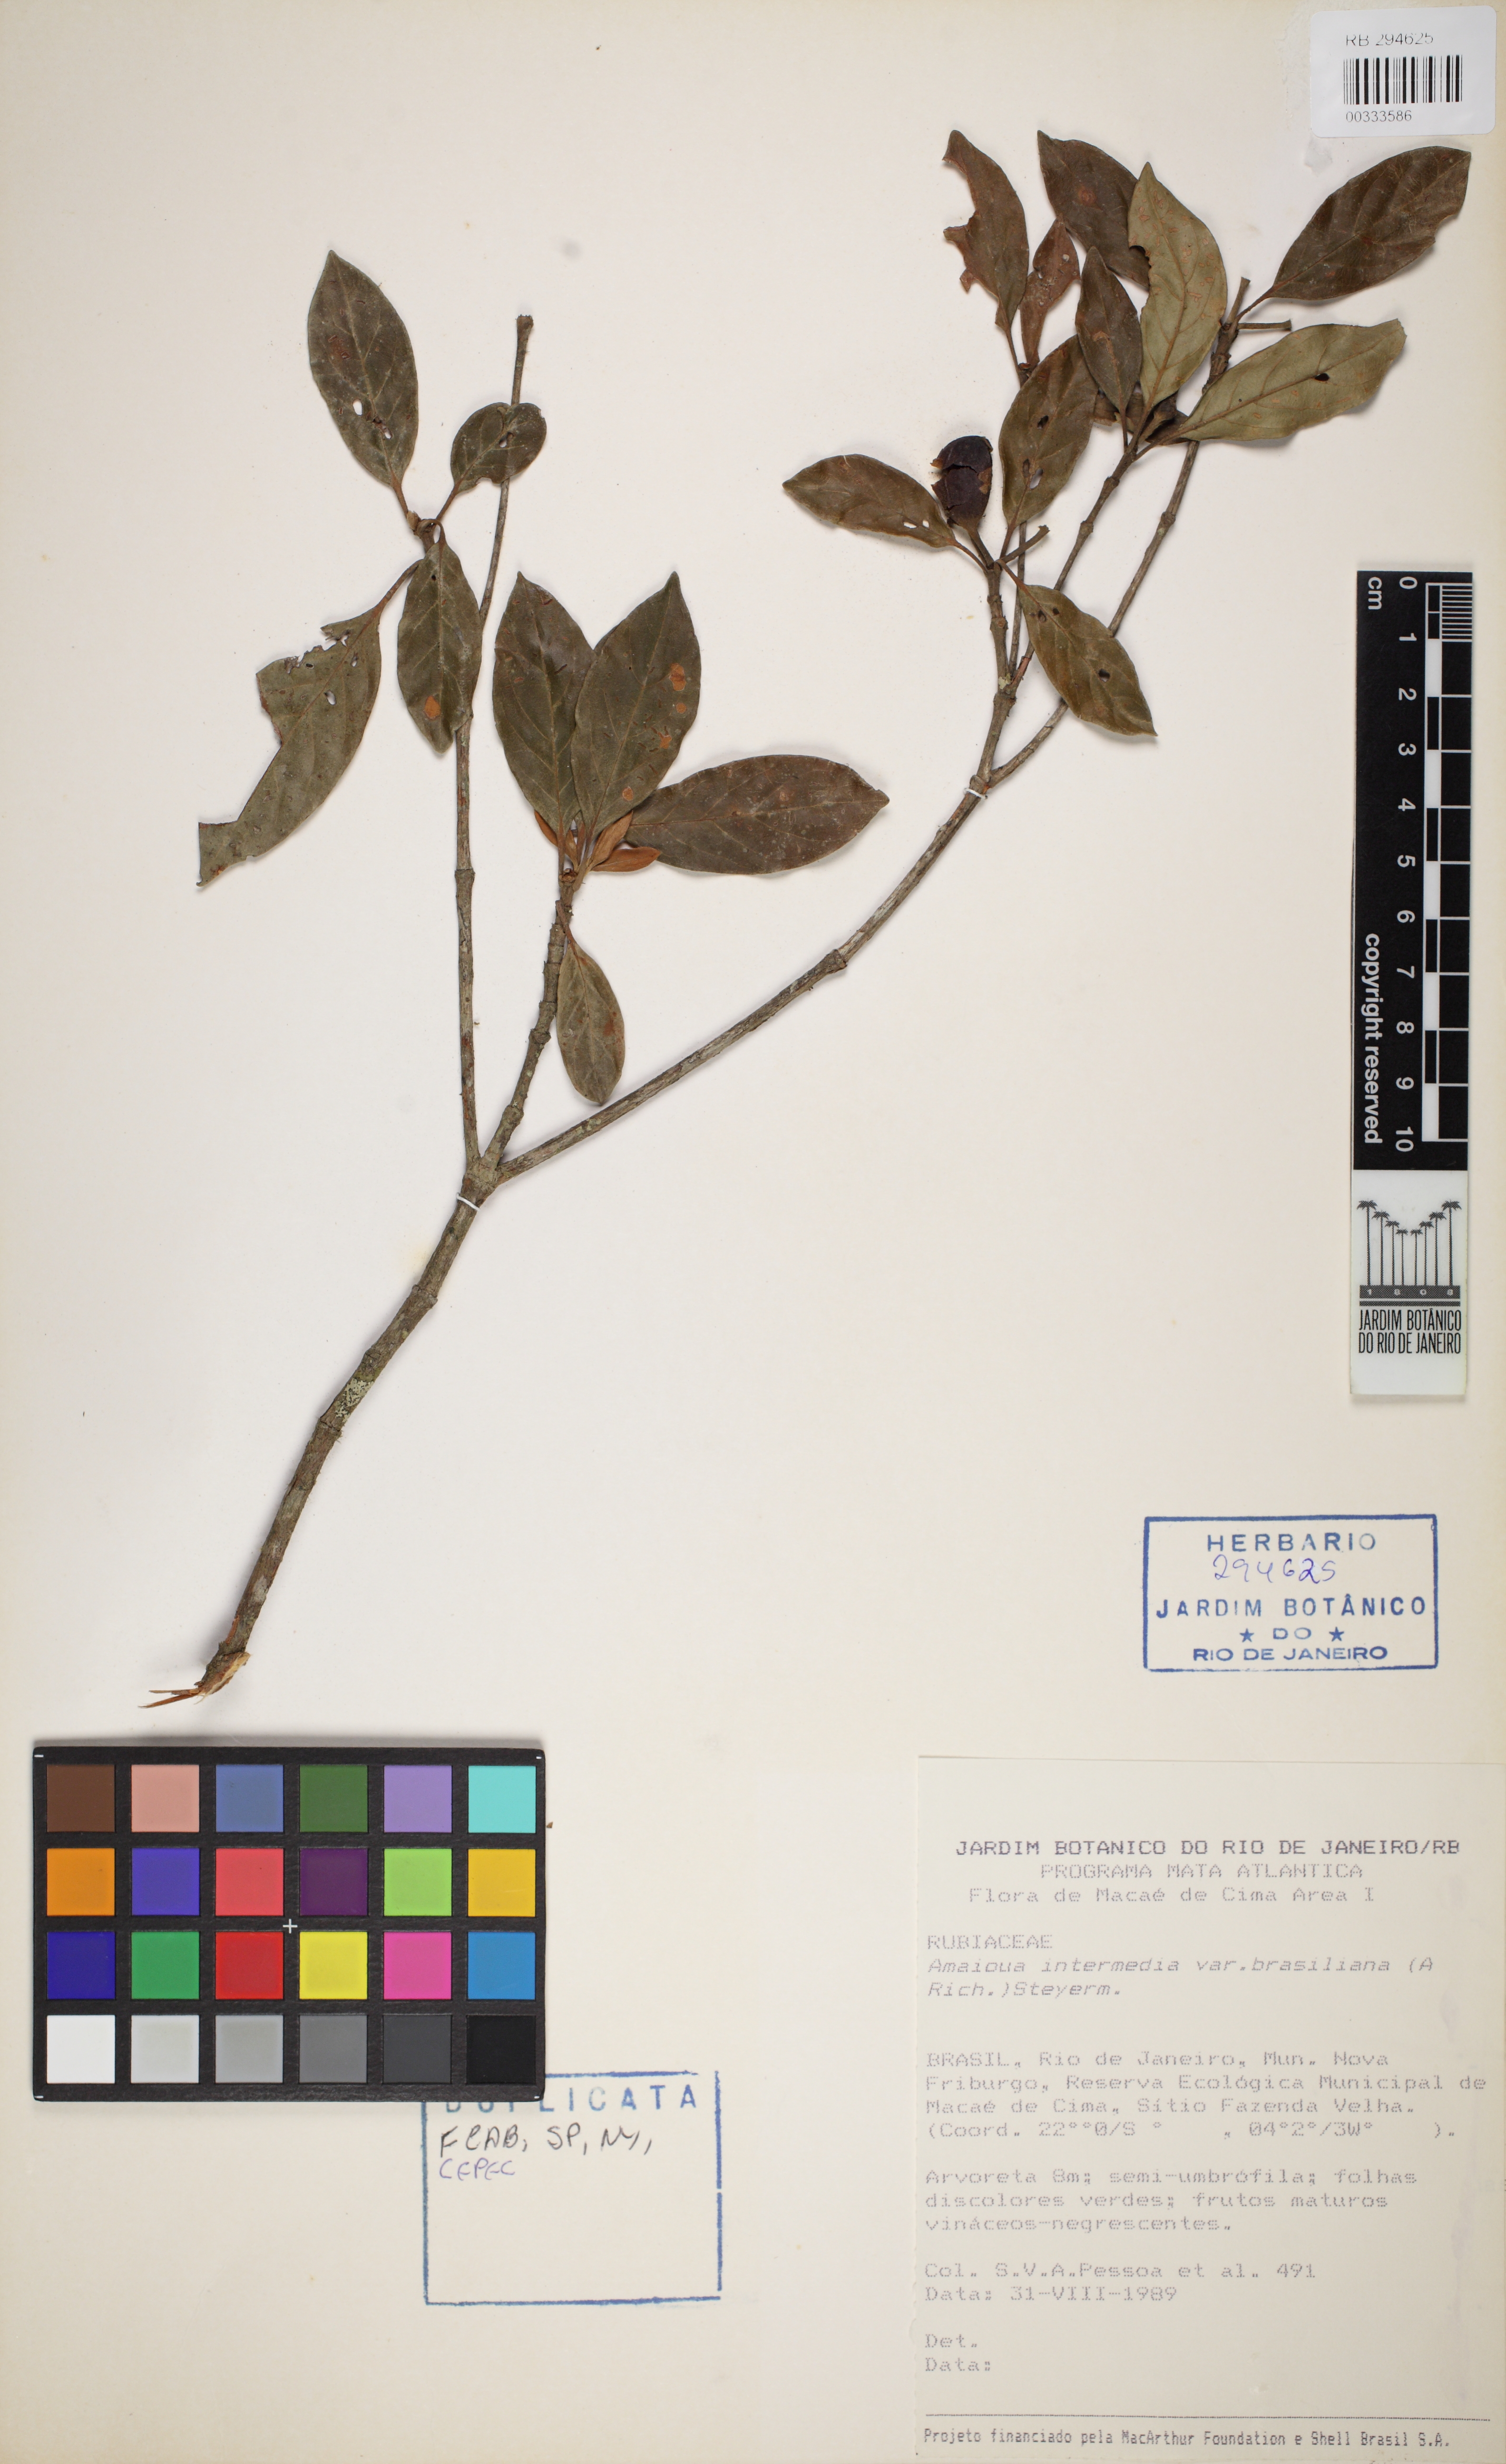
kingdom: Plantae
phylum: Tracheophyta
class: Magnoliopsida
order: Gentianales
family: Rubiaceae
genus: Amaioua
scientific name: Amaioua intermedia
